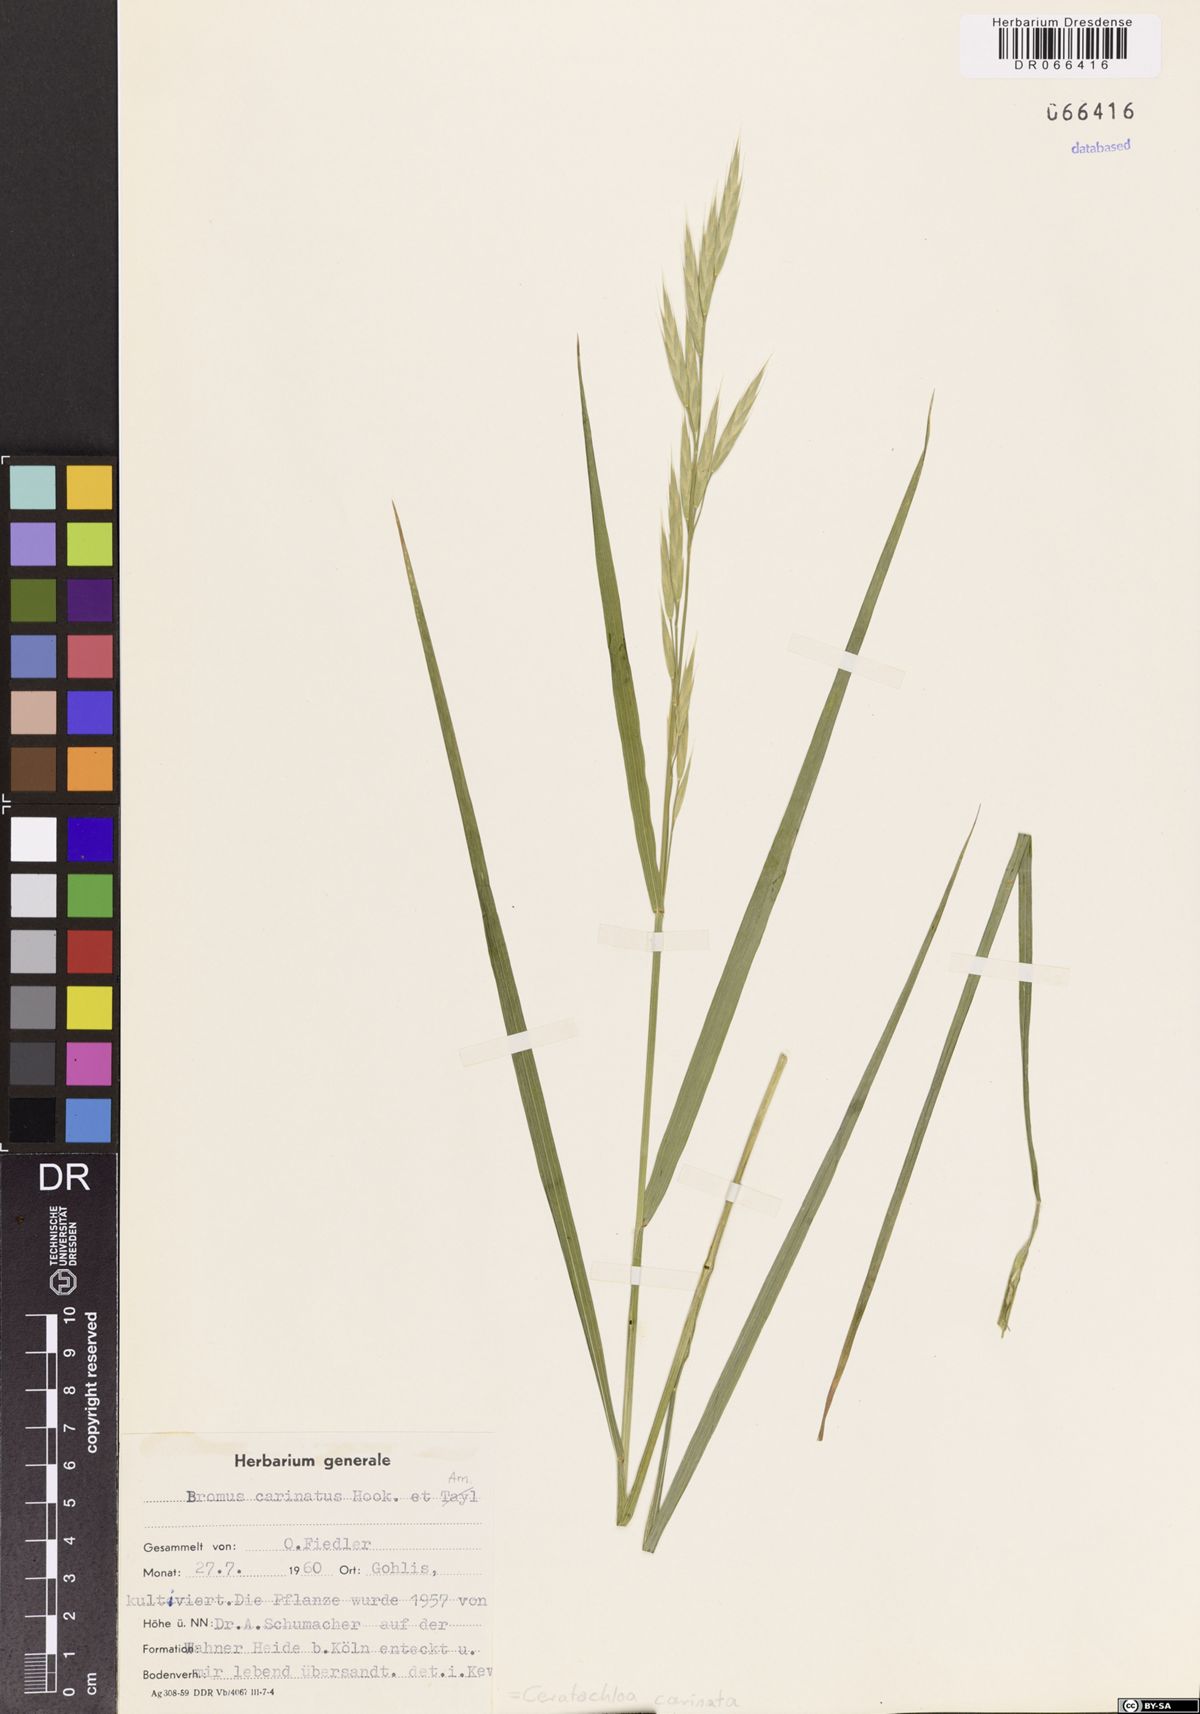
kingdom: Plantae
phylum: Tracheophyta
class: Liliopsida
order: Poales
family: Poaceae
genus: Bromus
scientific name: Bromus carinatus
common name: Mountain brome
